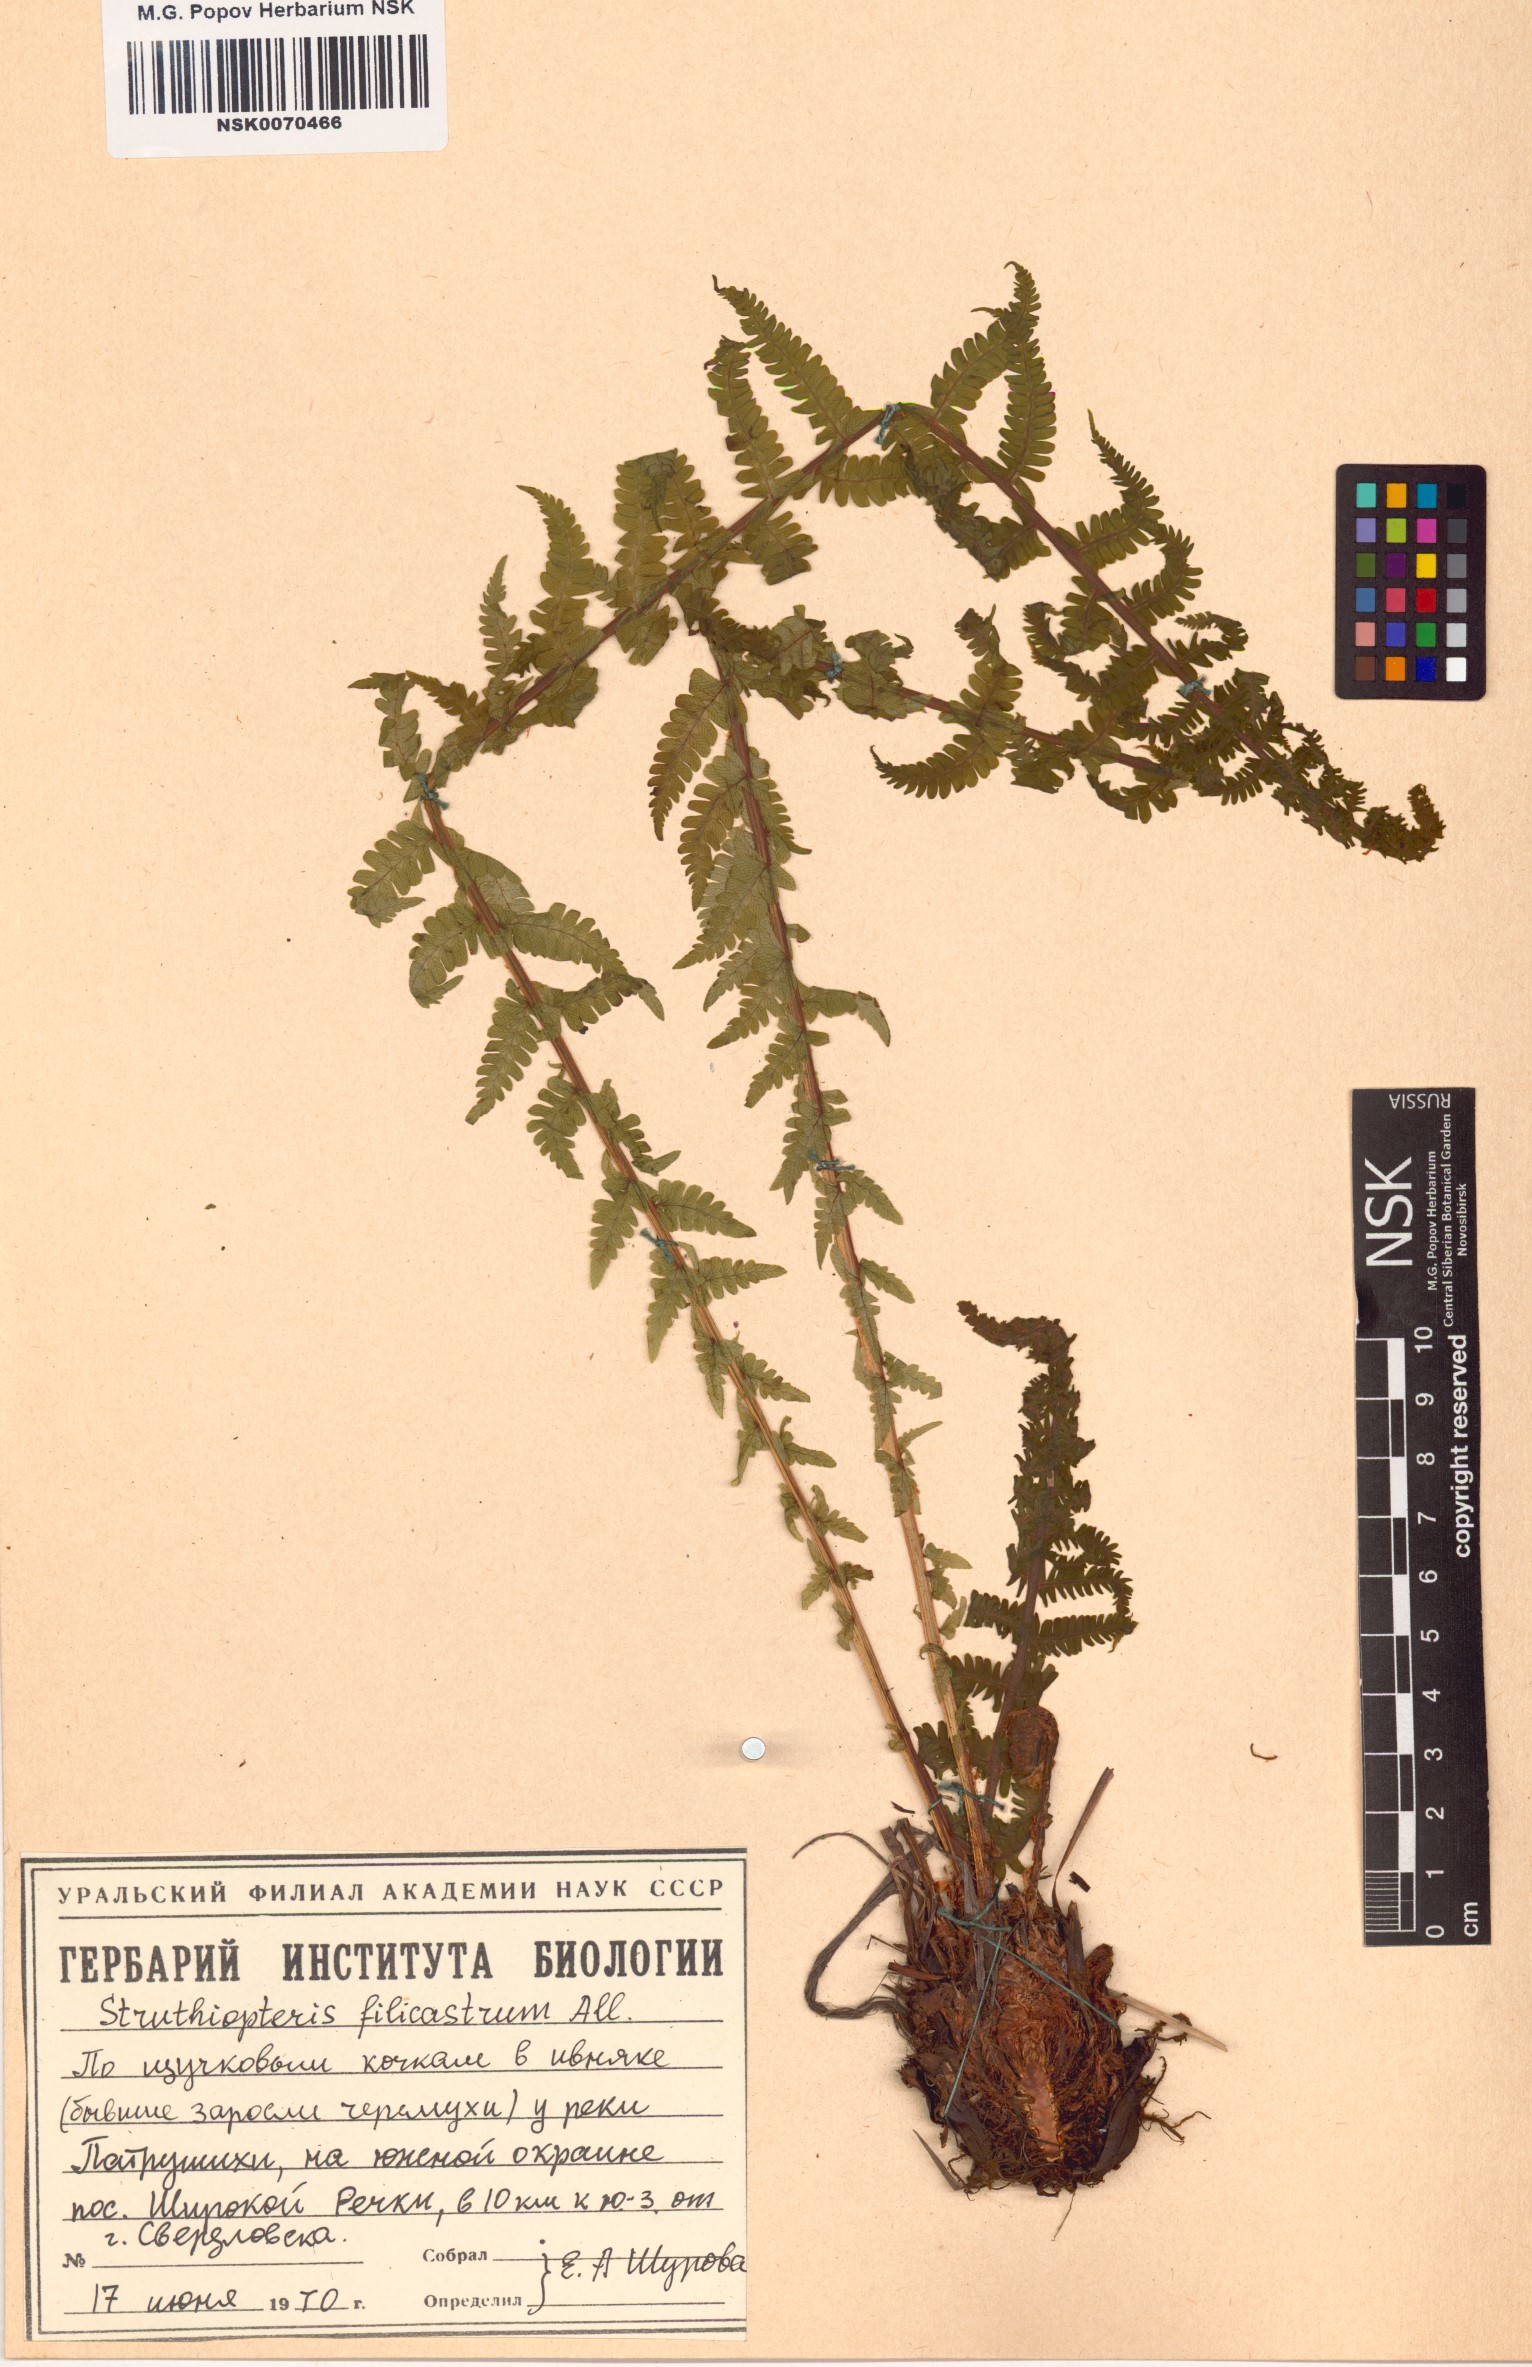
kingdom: Plantae
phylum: Tracheophyta
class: Polypodiopsida
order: Polypodiales
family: Onocleaceae
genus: Matteuccia
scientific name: Matteuccia struthiopteris
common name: Ostrich fern
